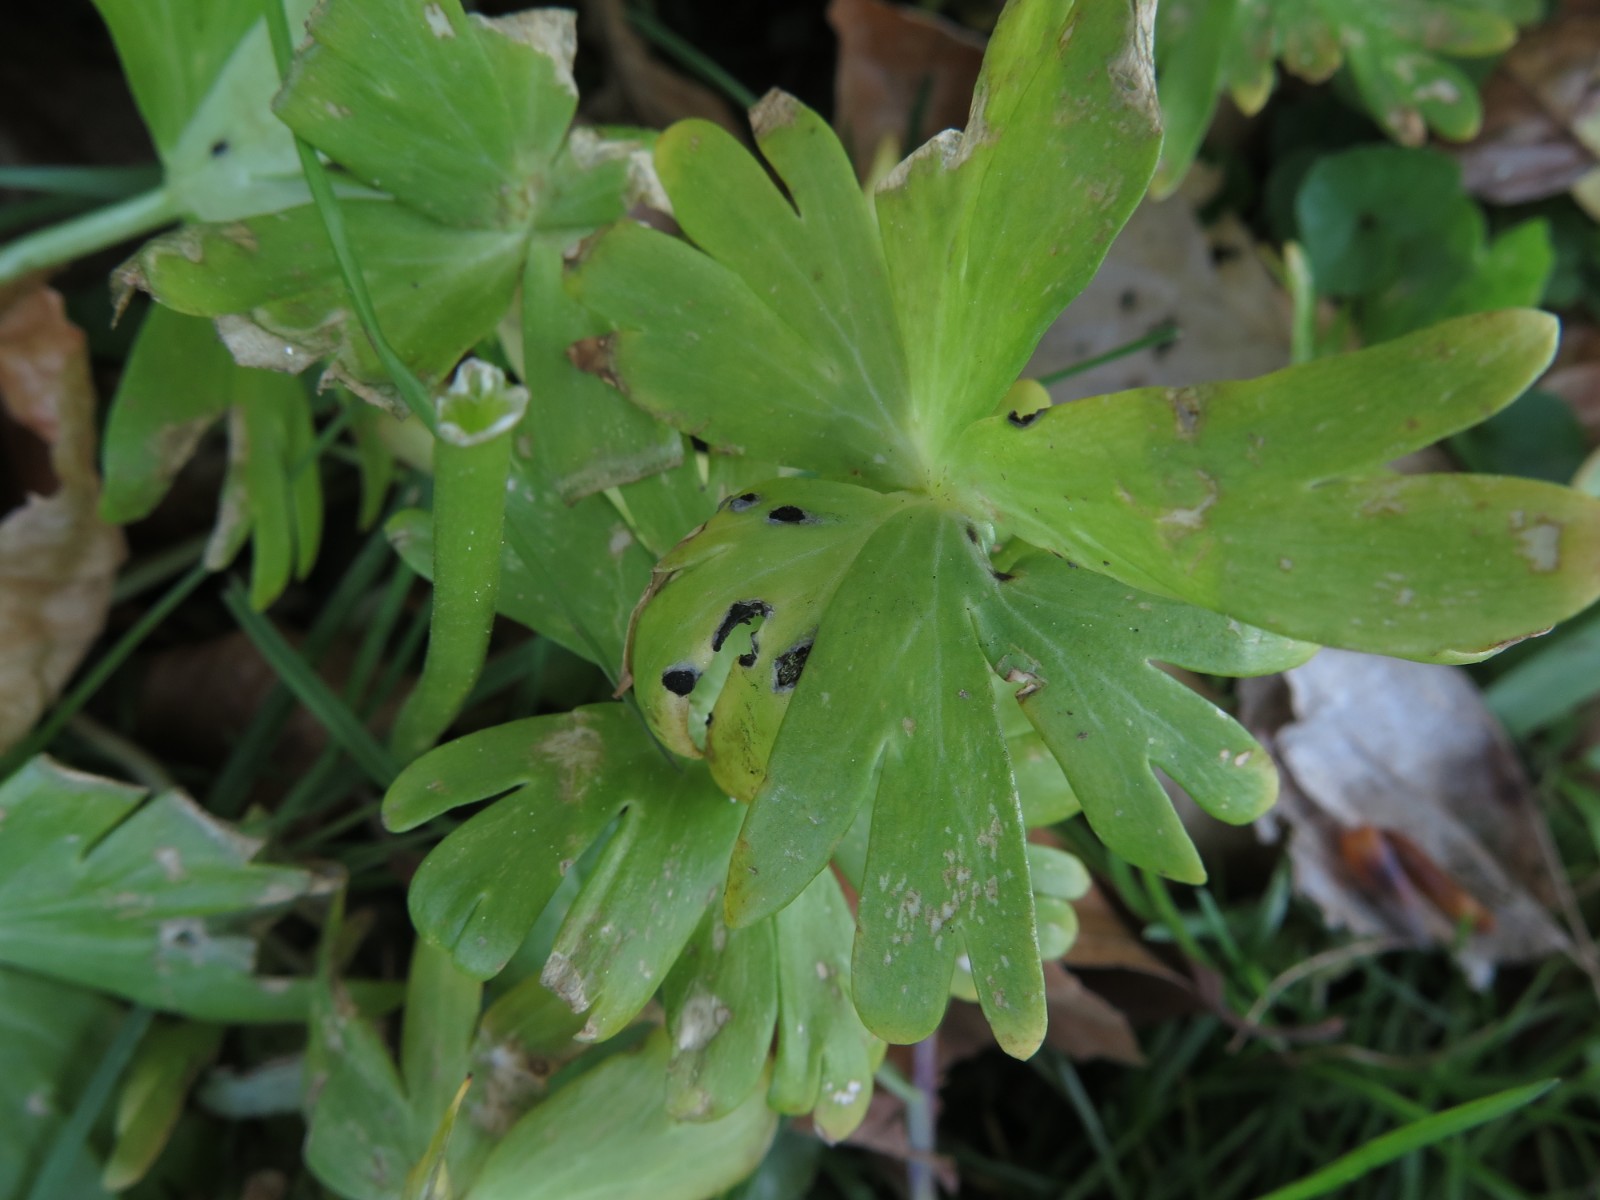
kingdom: Fungi
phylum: Basidiomycota
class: Ustilaginomycetes
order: Urocystidales
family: Urocystidaceae
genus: Urocystis
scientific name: Urocystis eranthidis
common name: erantis-brand
